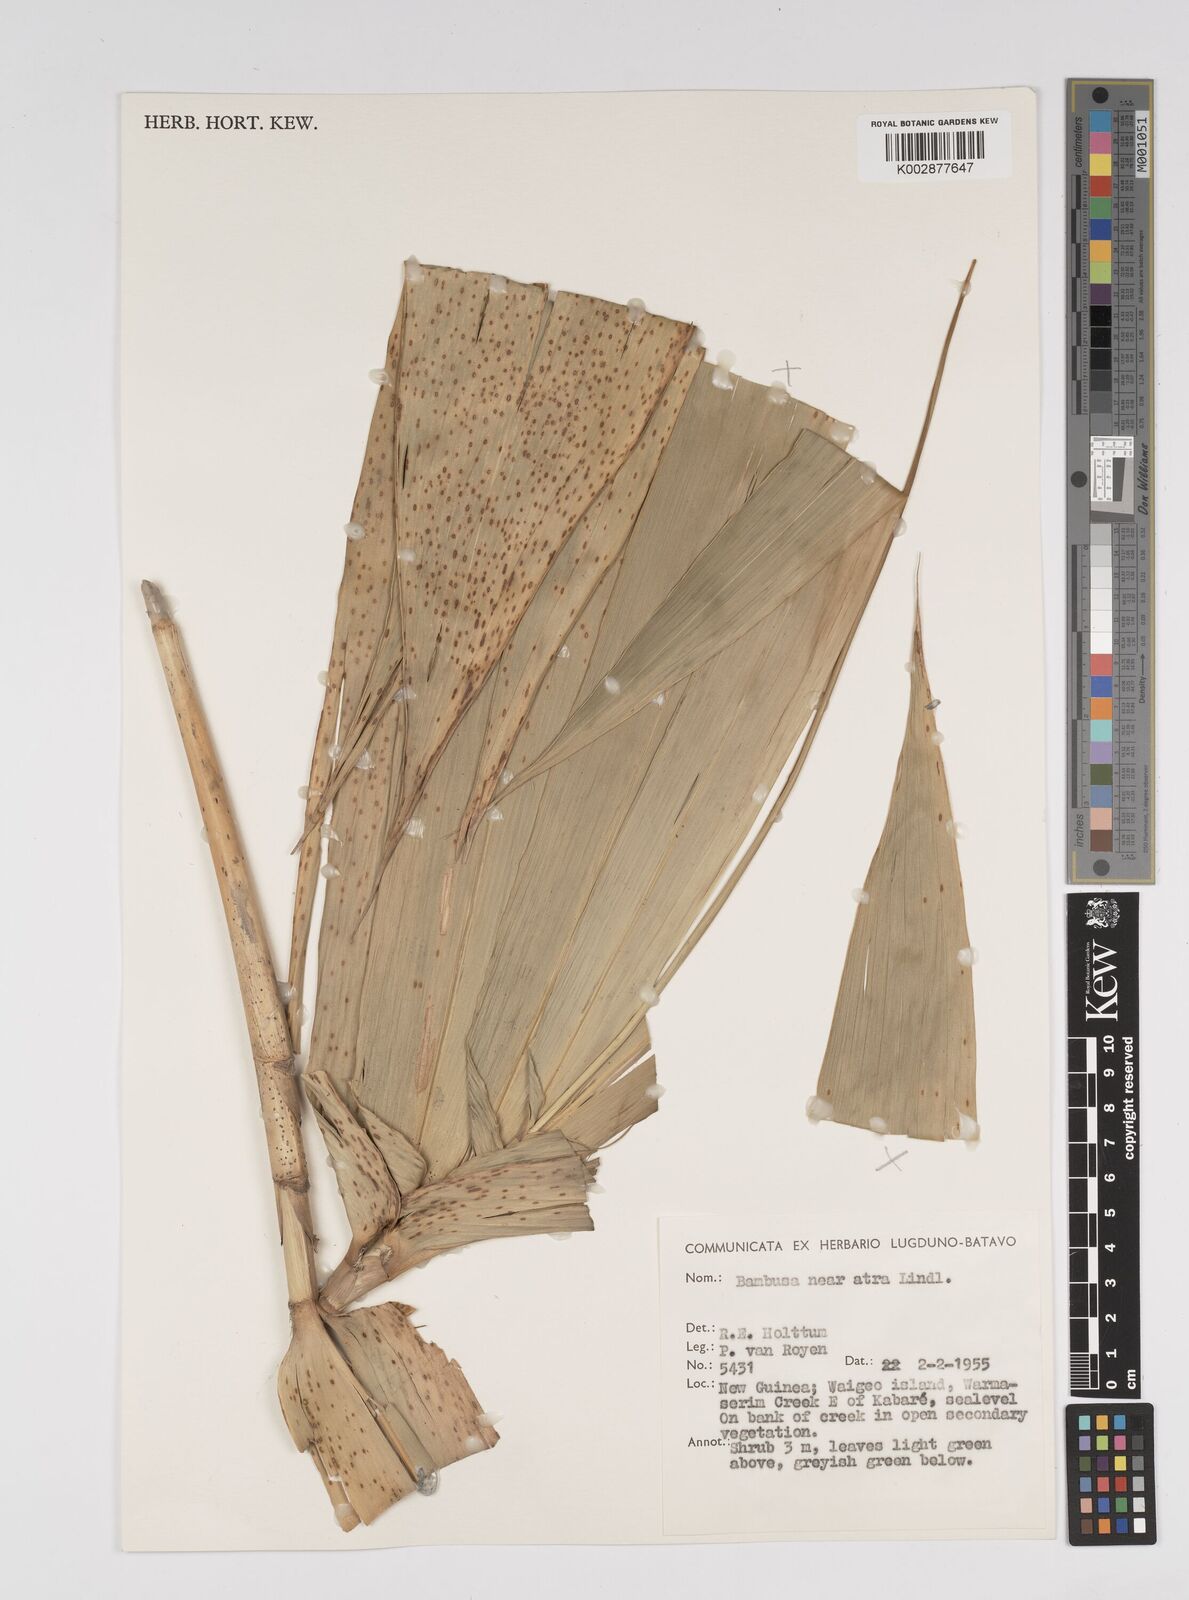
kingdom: Plantae
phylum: Tracheophyta
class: Liliopsida
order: Poales
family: Poaceae
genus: Bambusa
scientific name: Bambusa
